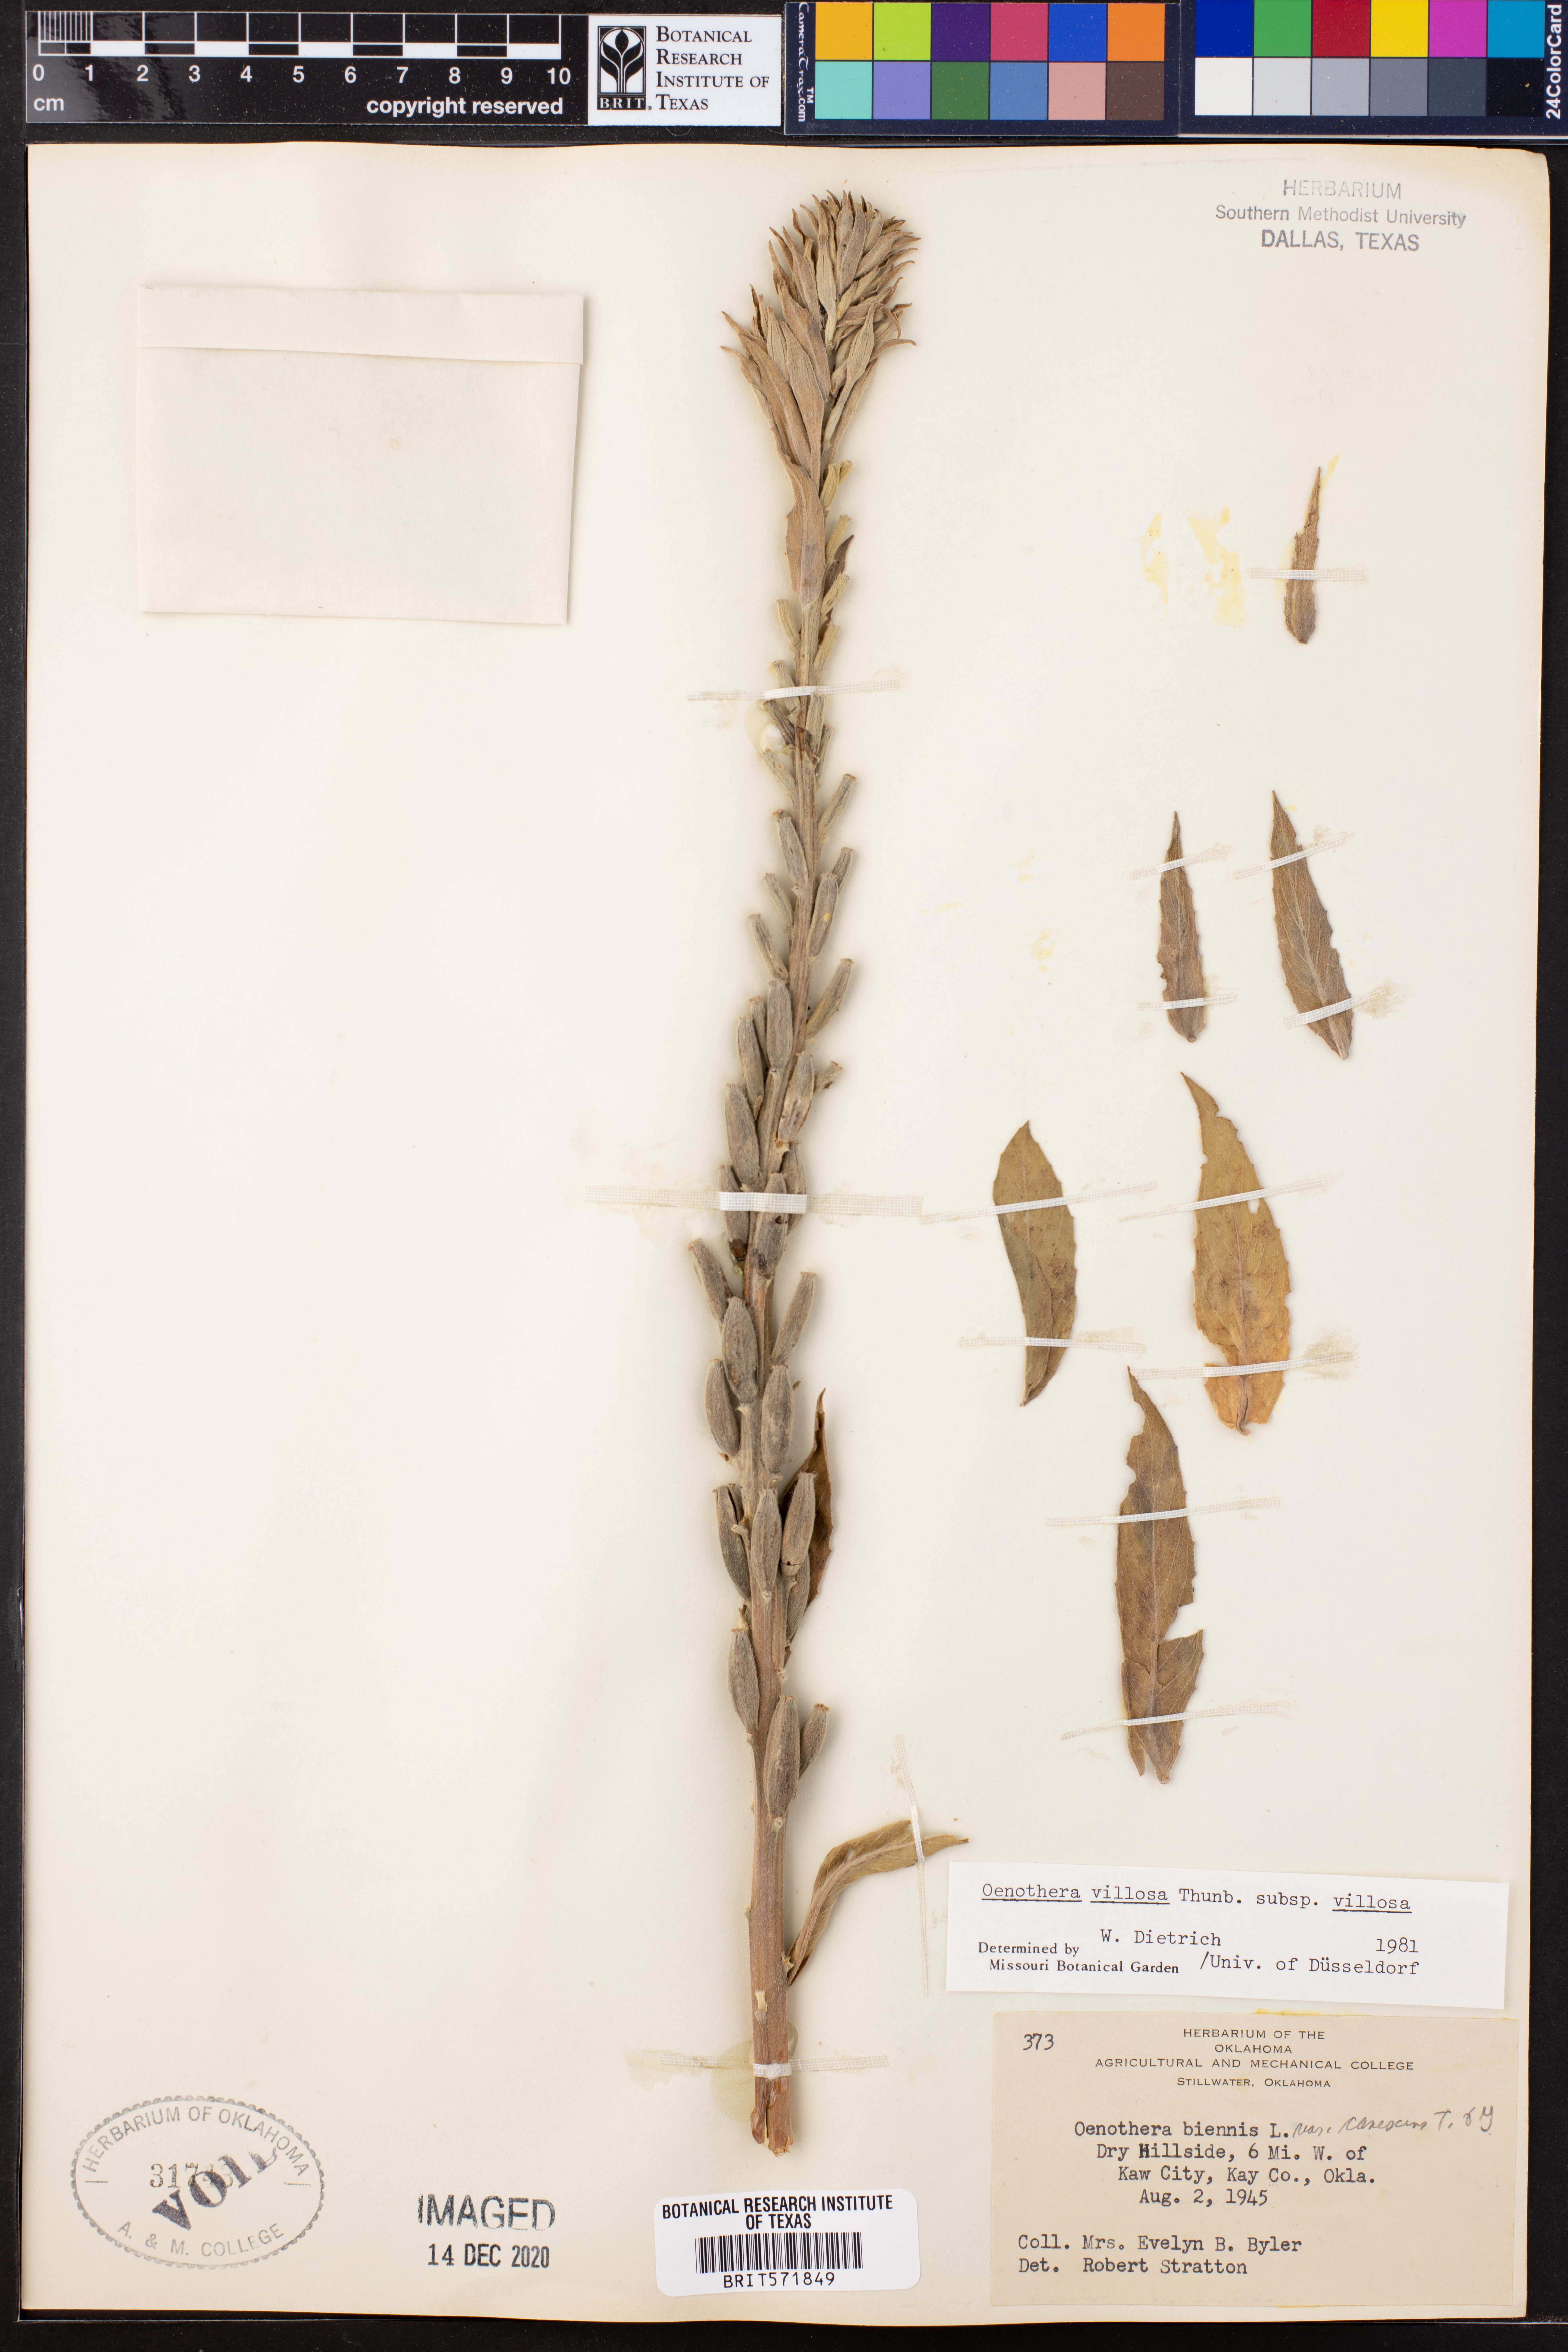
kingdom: Plantae
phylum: Tracheophyta
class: Magnoliopsida
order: Myrtales
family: Onagraceae
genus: Oenothera
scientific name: Oenothera villosa
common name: Hairy evening-primrose
